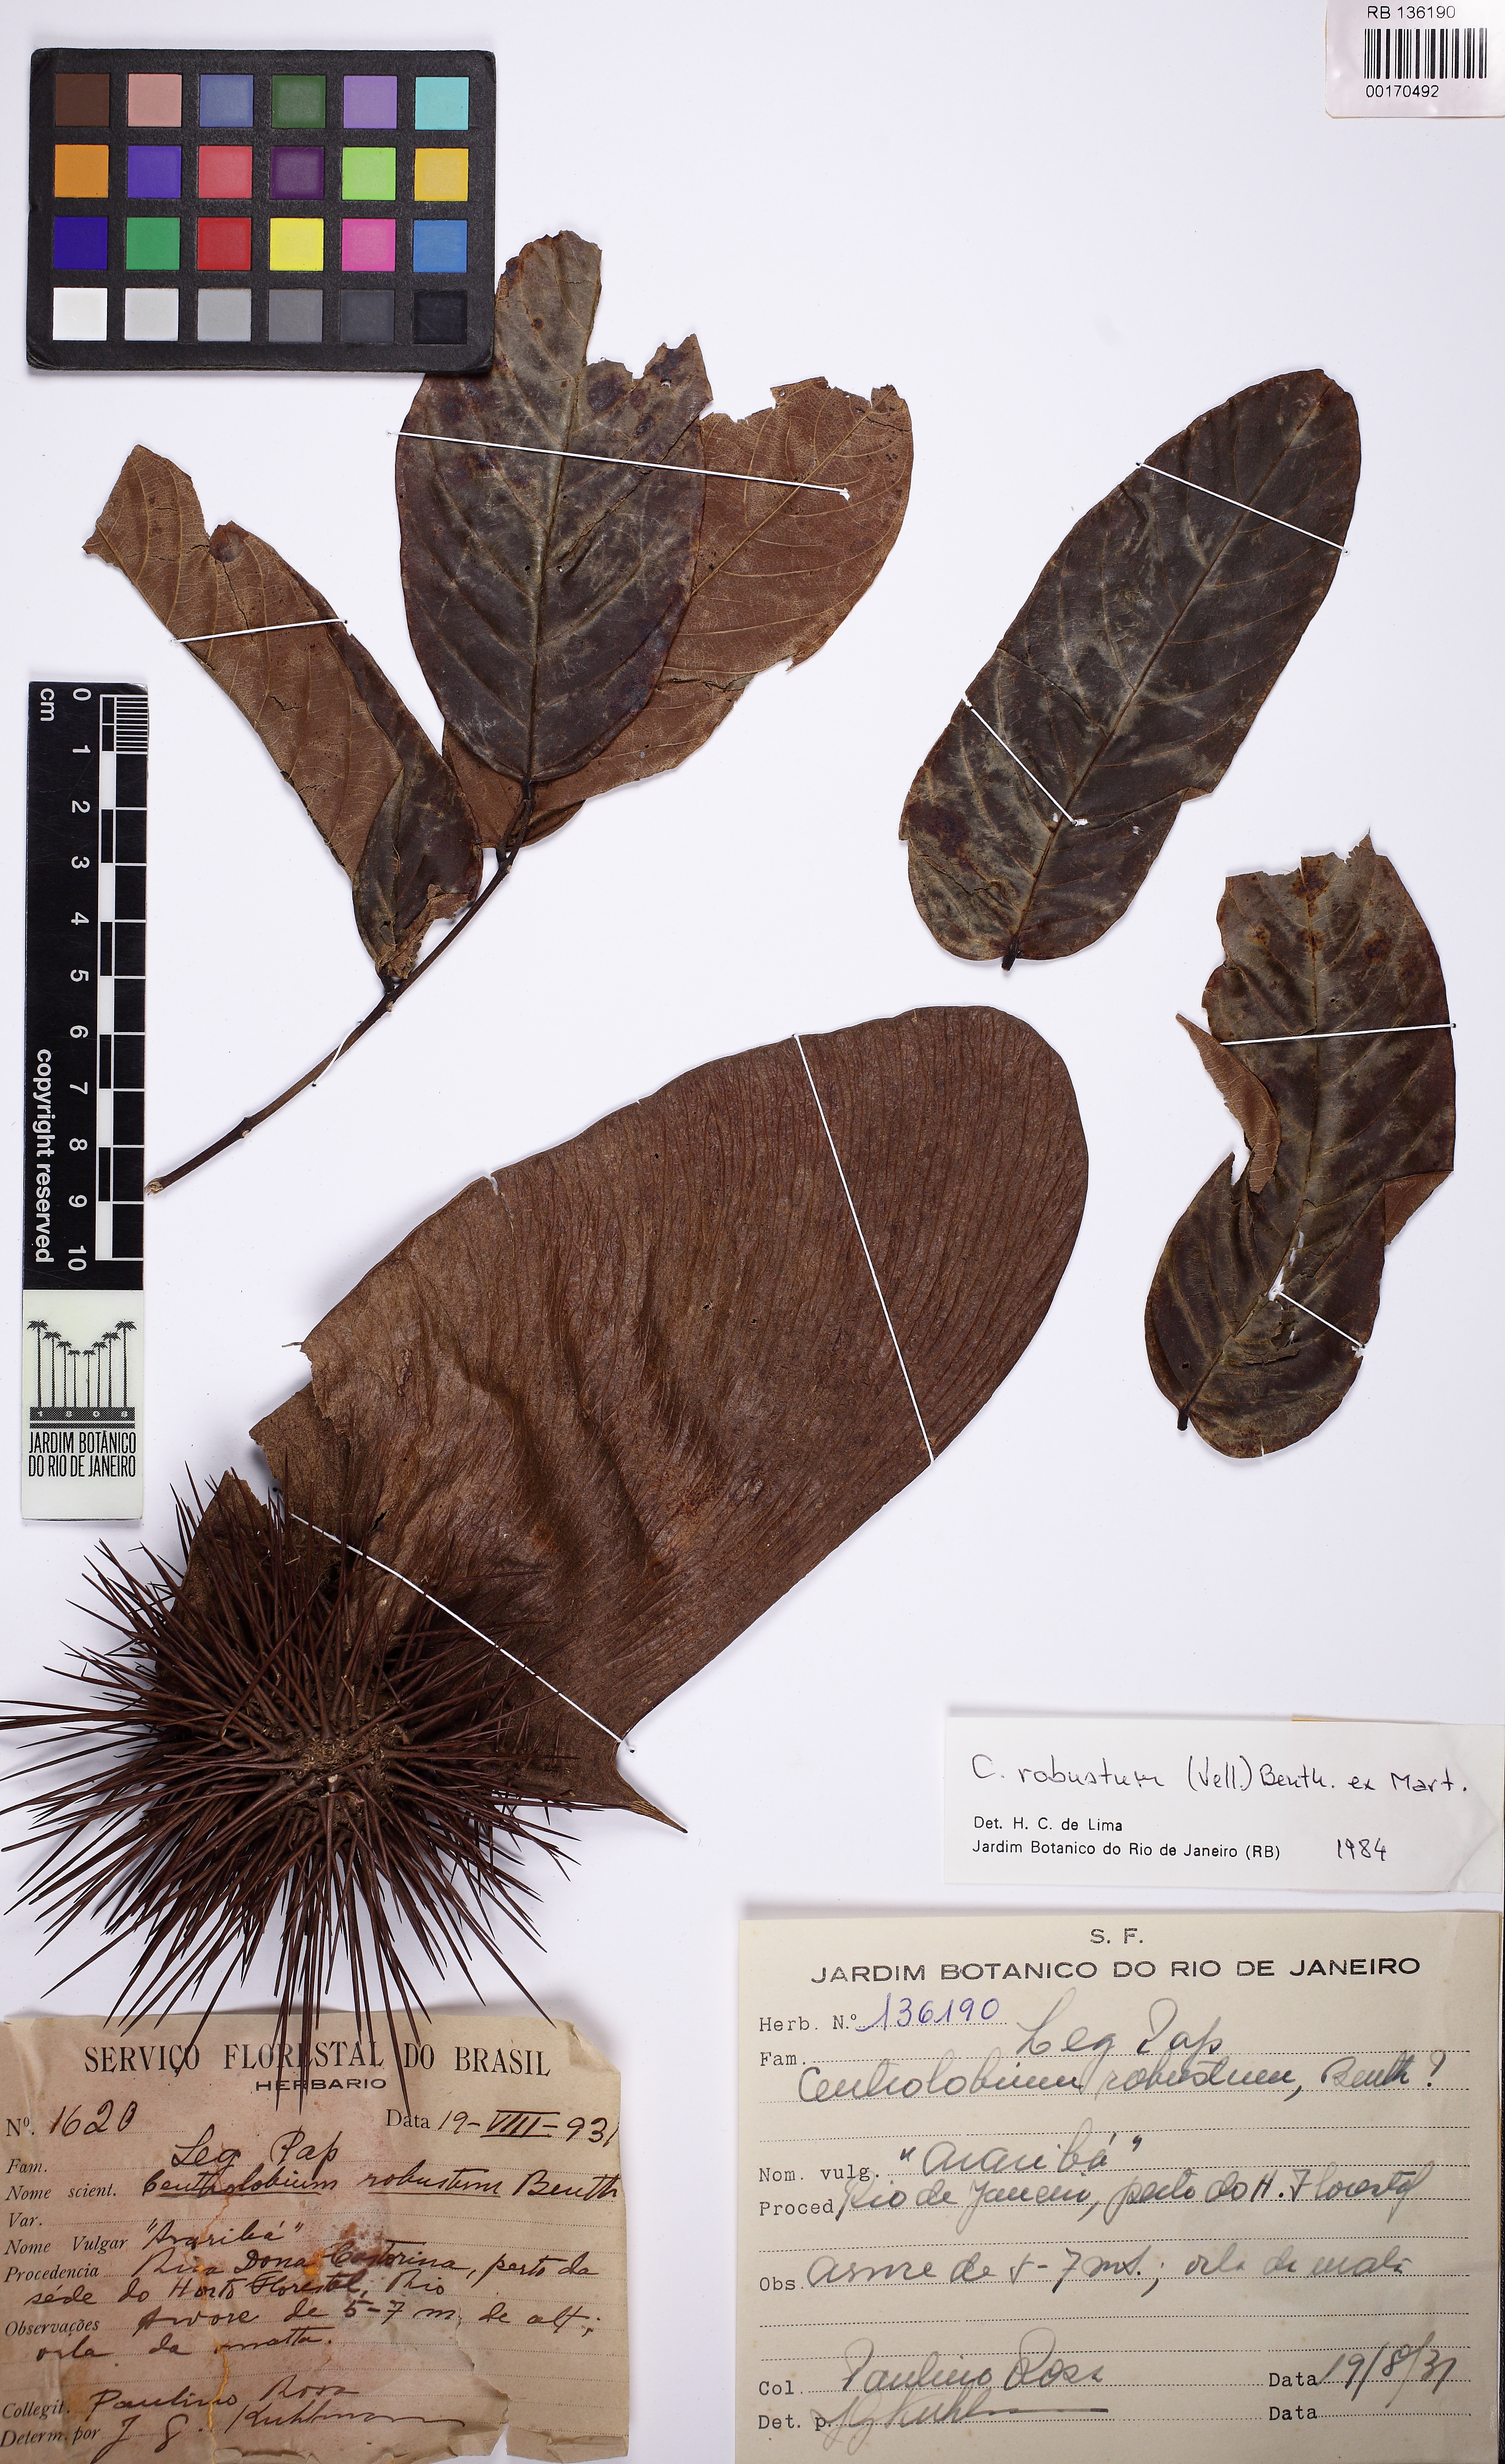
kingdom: Plantae
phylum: Tracheophyta
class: Magnoliopsida
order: Fabales
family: Fabaceae
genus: Centrolobium
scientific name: Centrolobium robustum
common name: Zebrawood
